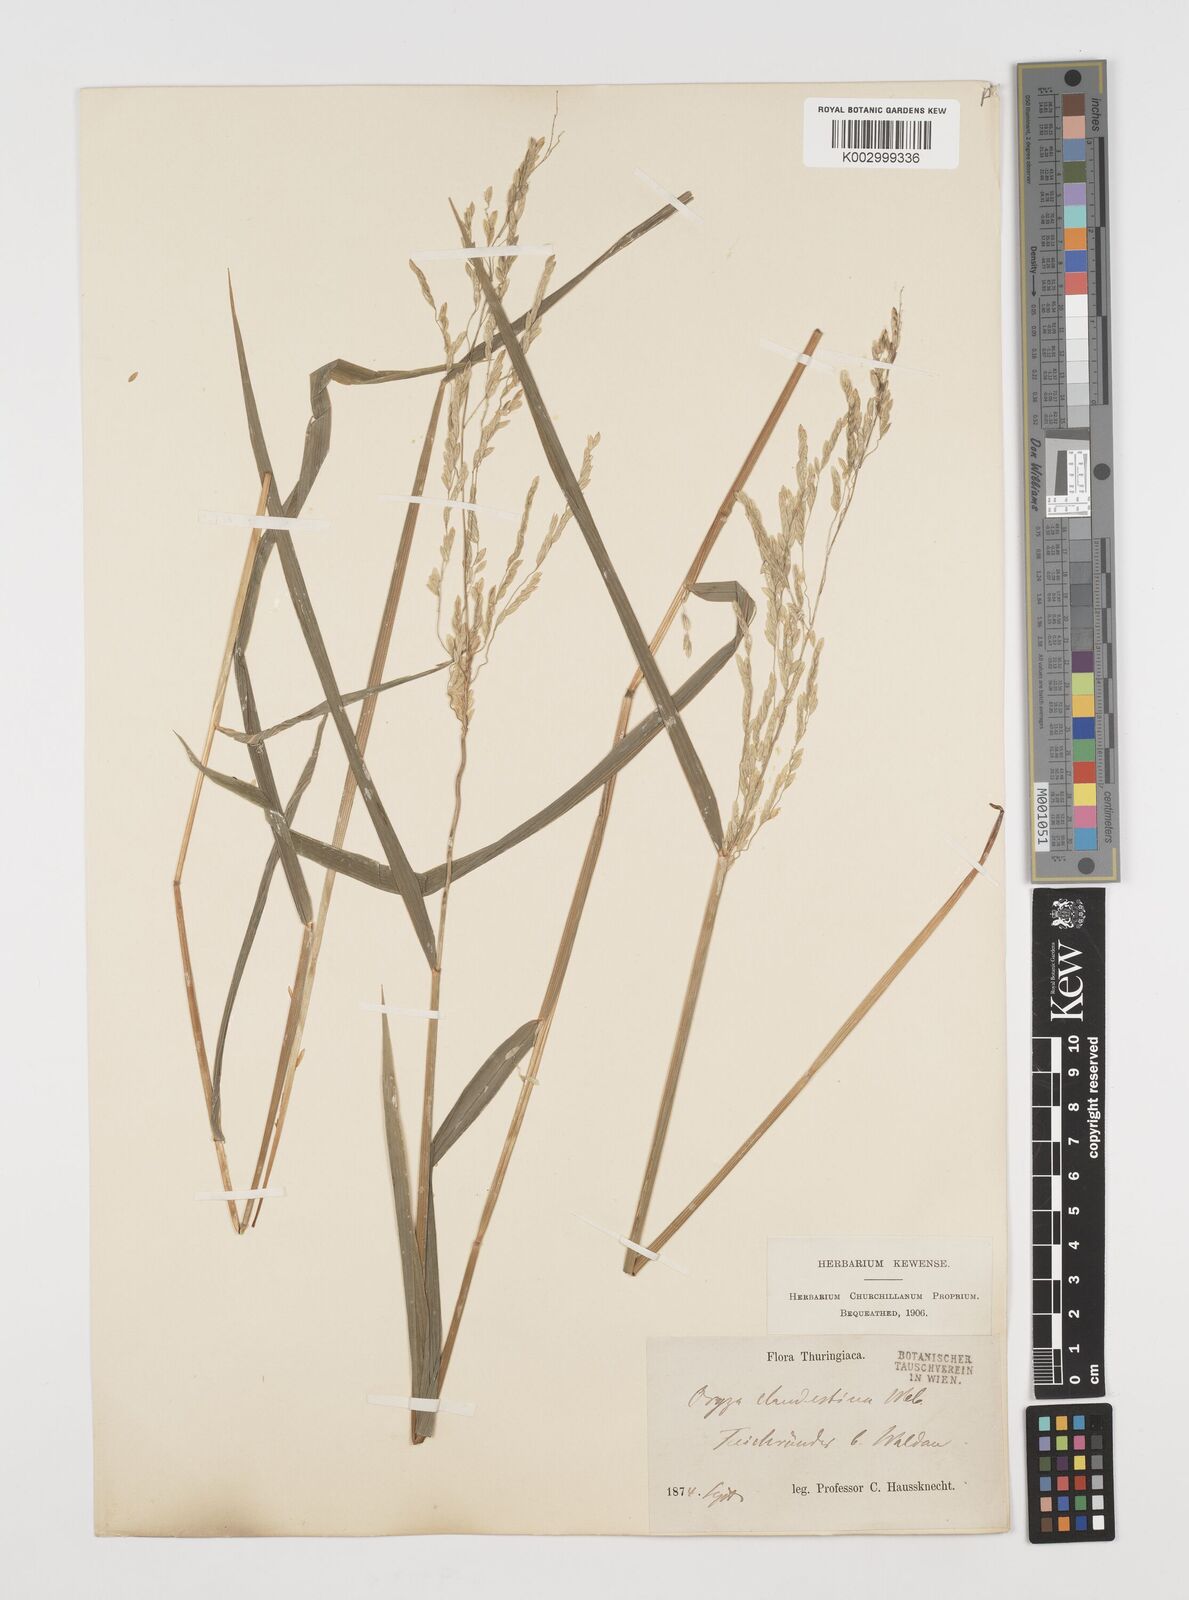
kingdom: Plantae
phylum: Tracheophyta
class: Liliopsida
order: Poales
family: Poaceae
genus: Leersia
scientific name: Leersia oryzoides
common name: Cut-grass
